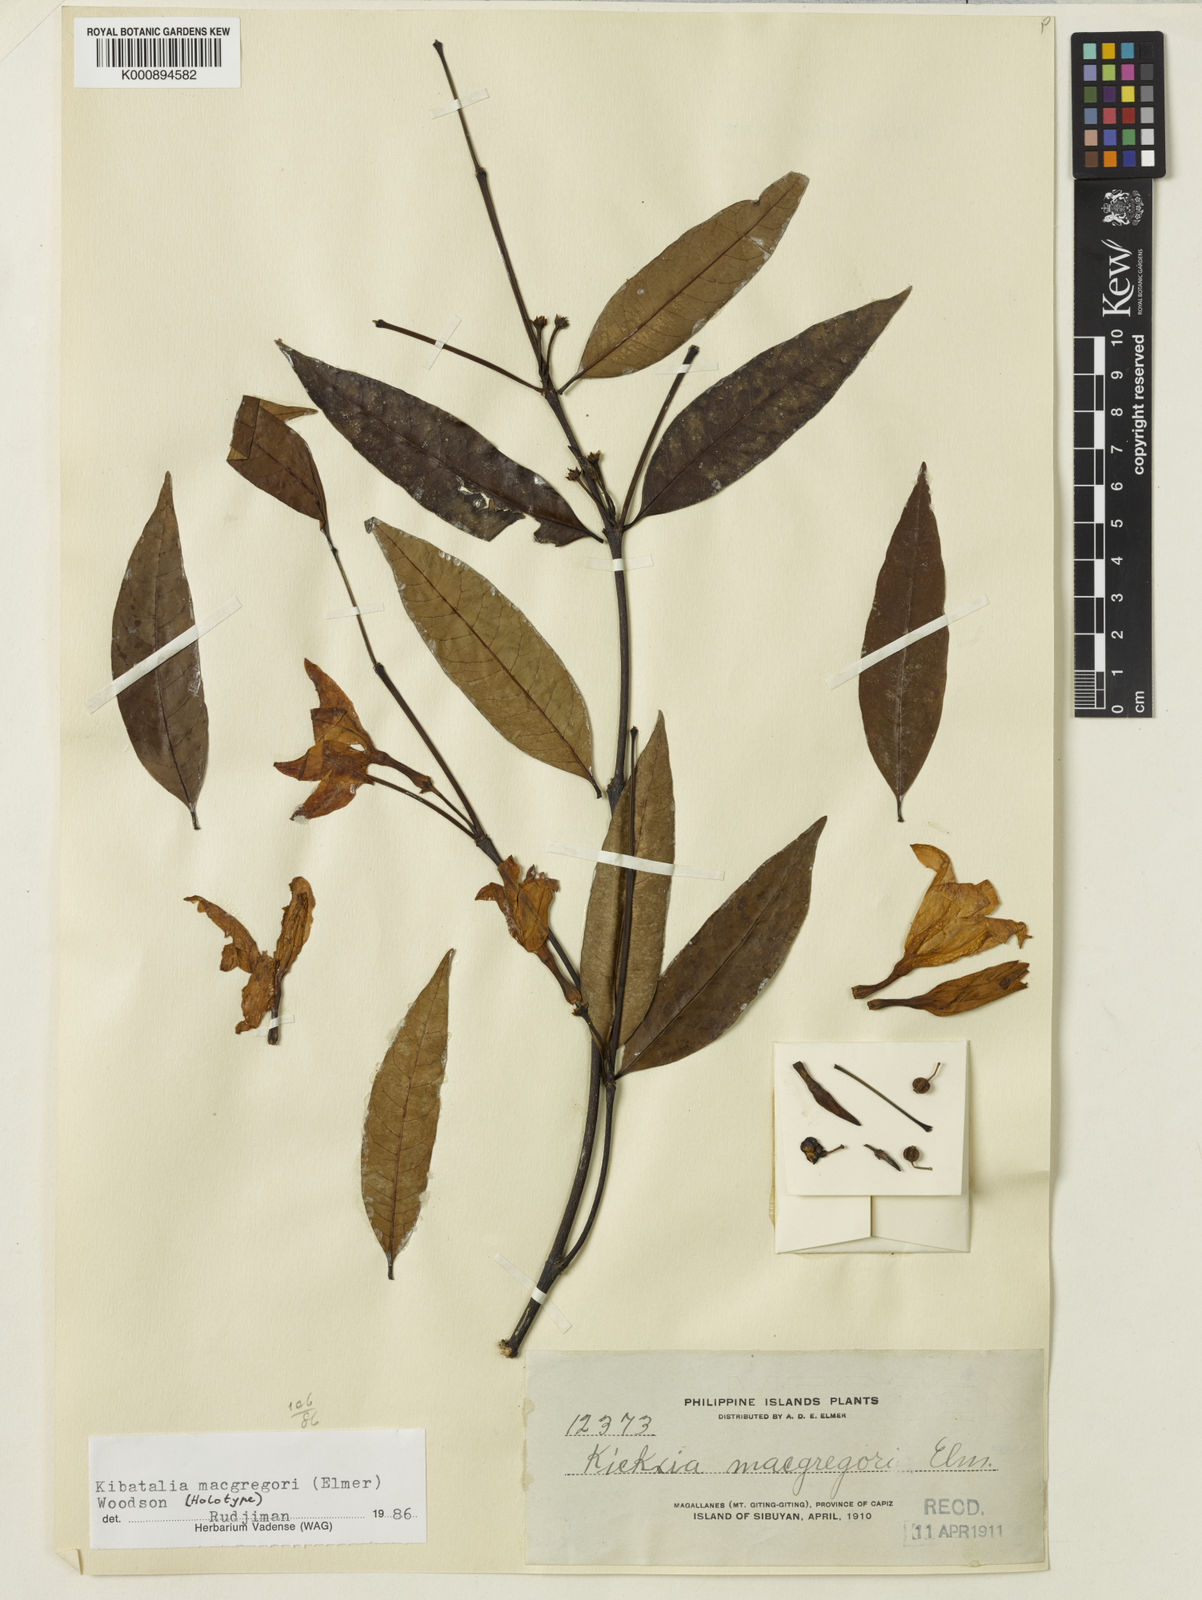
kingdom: Plantae
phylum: Tracheophyta
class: Magnoliopsida
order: Gentianales
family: Apocynaceae
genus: Kibatalia
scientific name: Kibatalia blancoi
